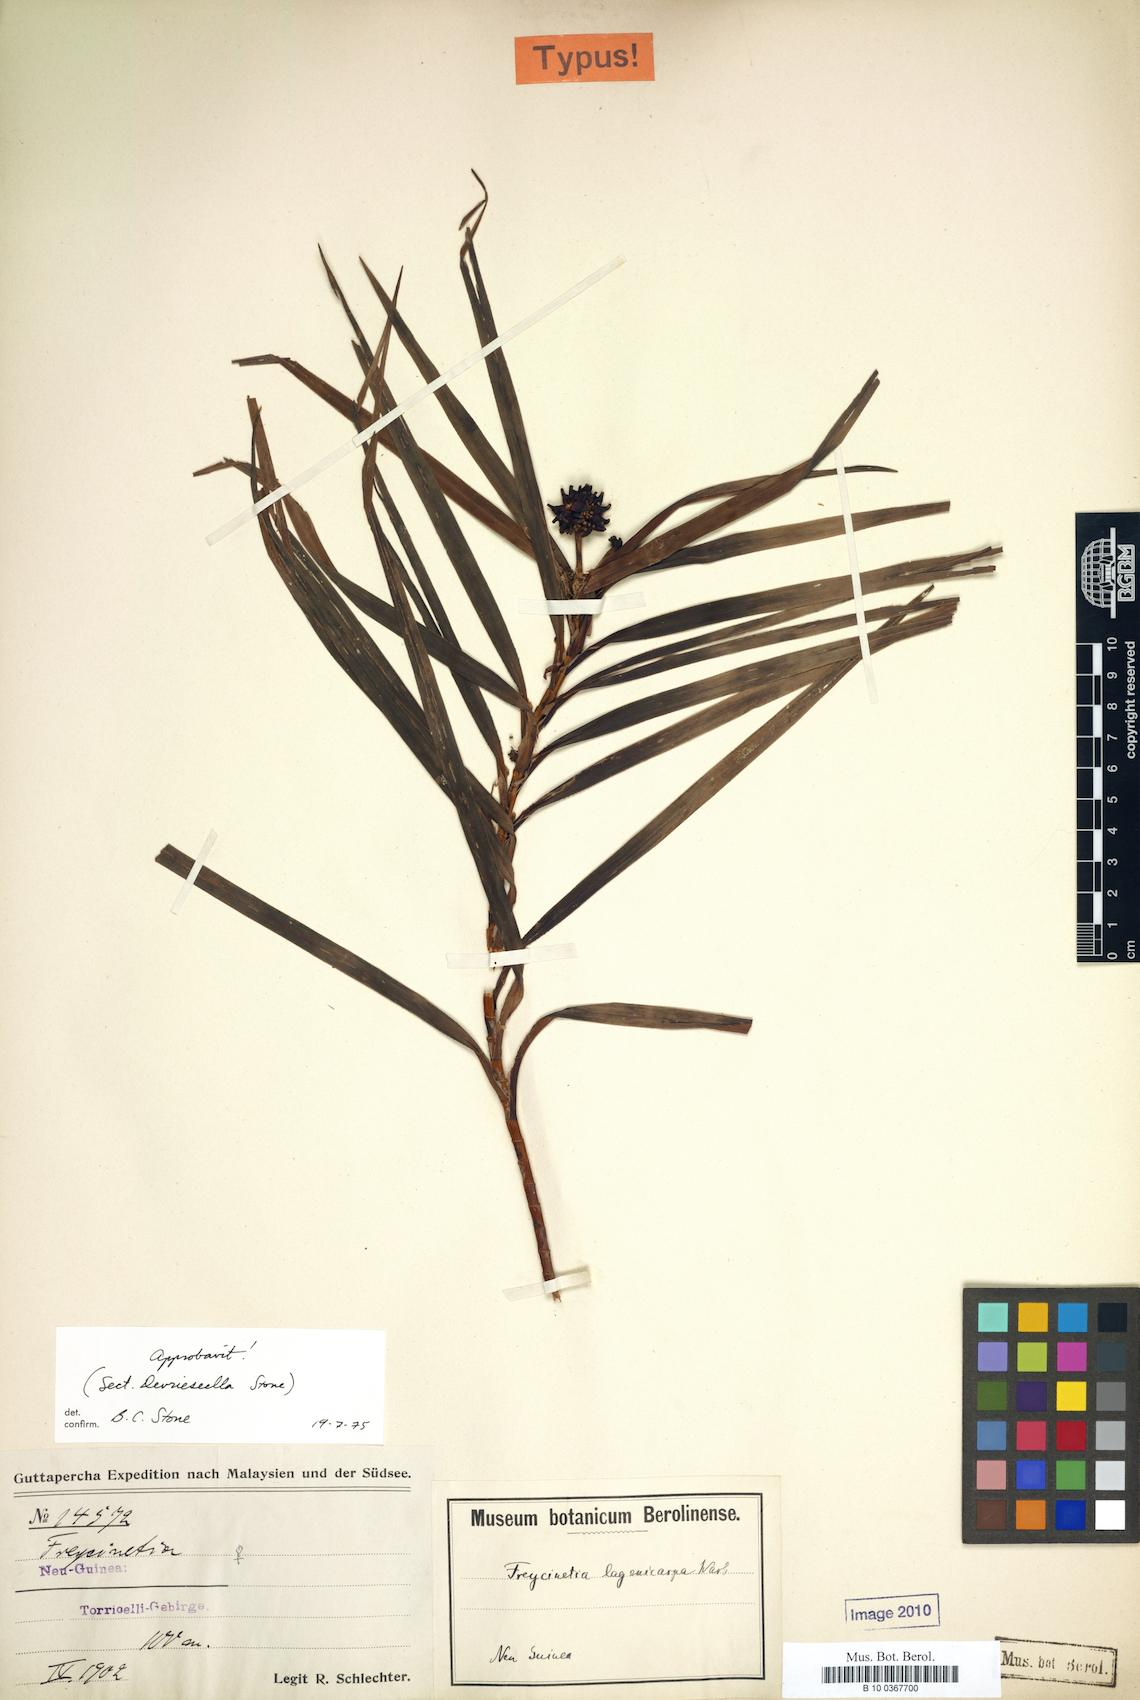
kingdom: Plantae
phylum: Tracheophyta
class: Liliopsida
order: Pandanales
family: Pandanaceae
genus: Freycinetia
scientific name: Freycinetia lagenicarpa
